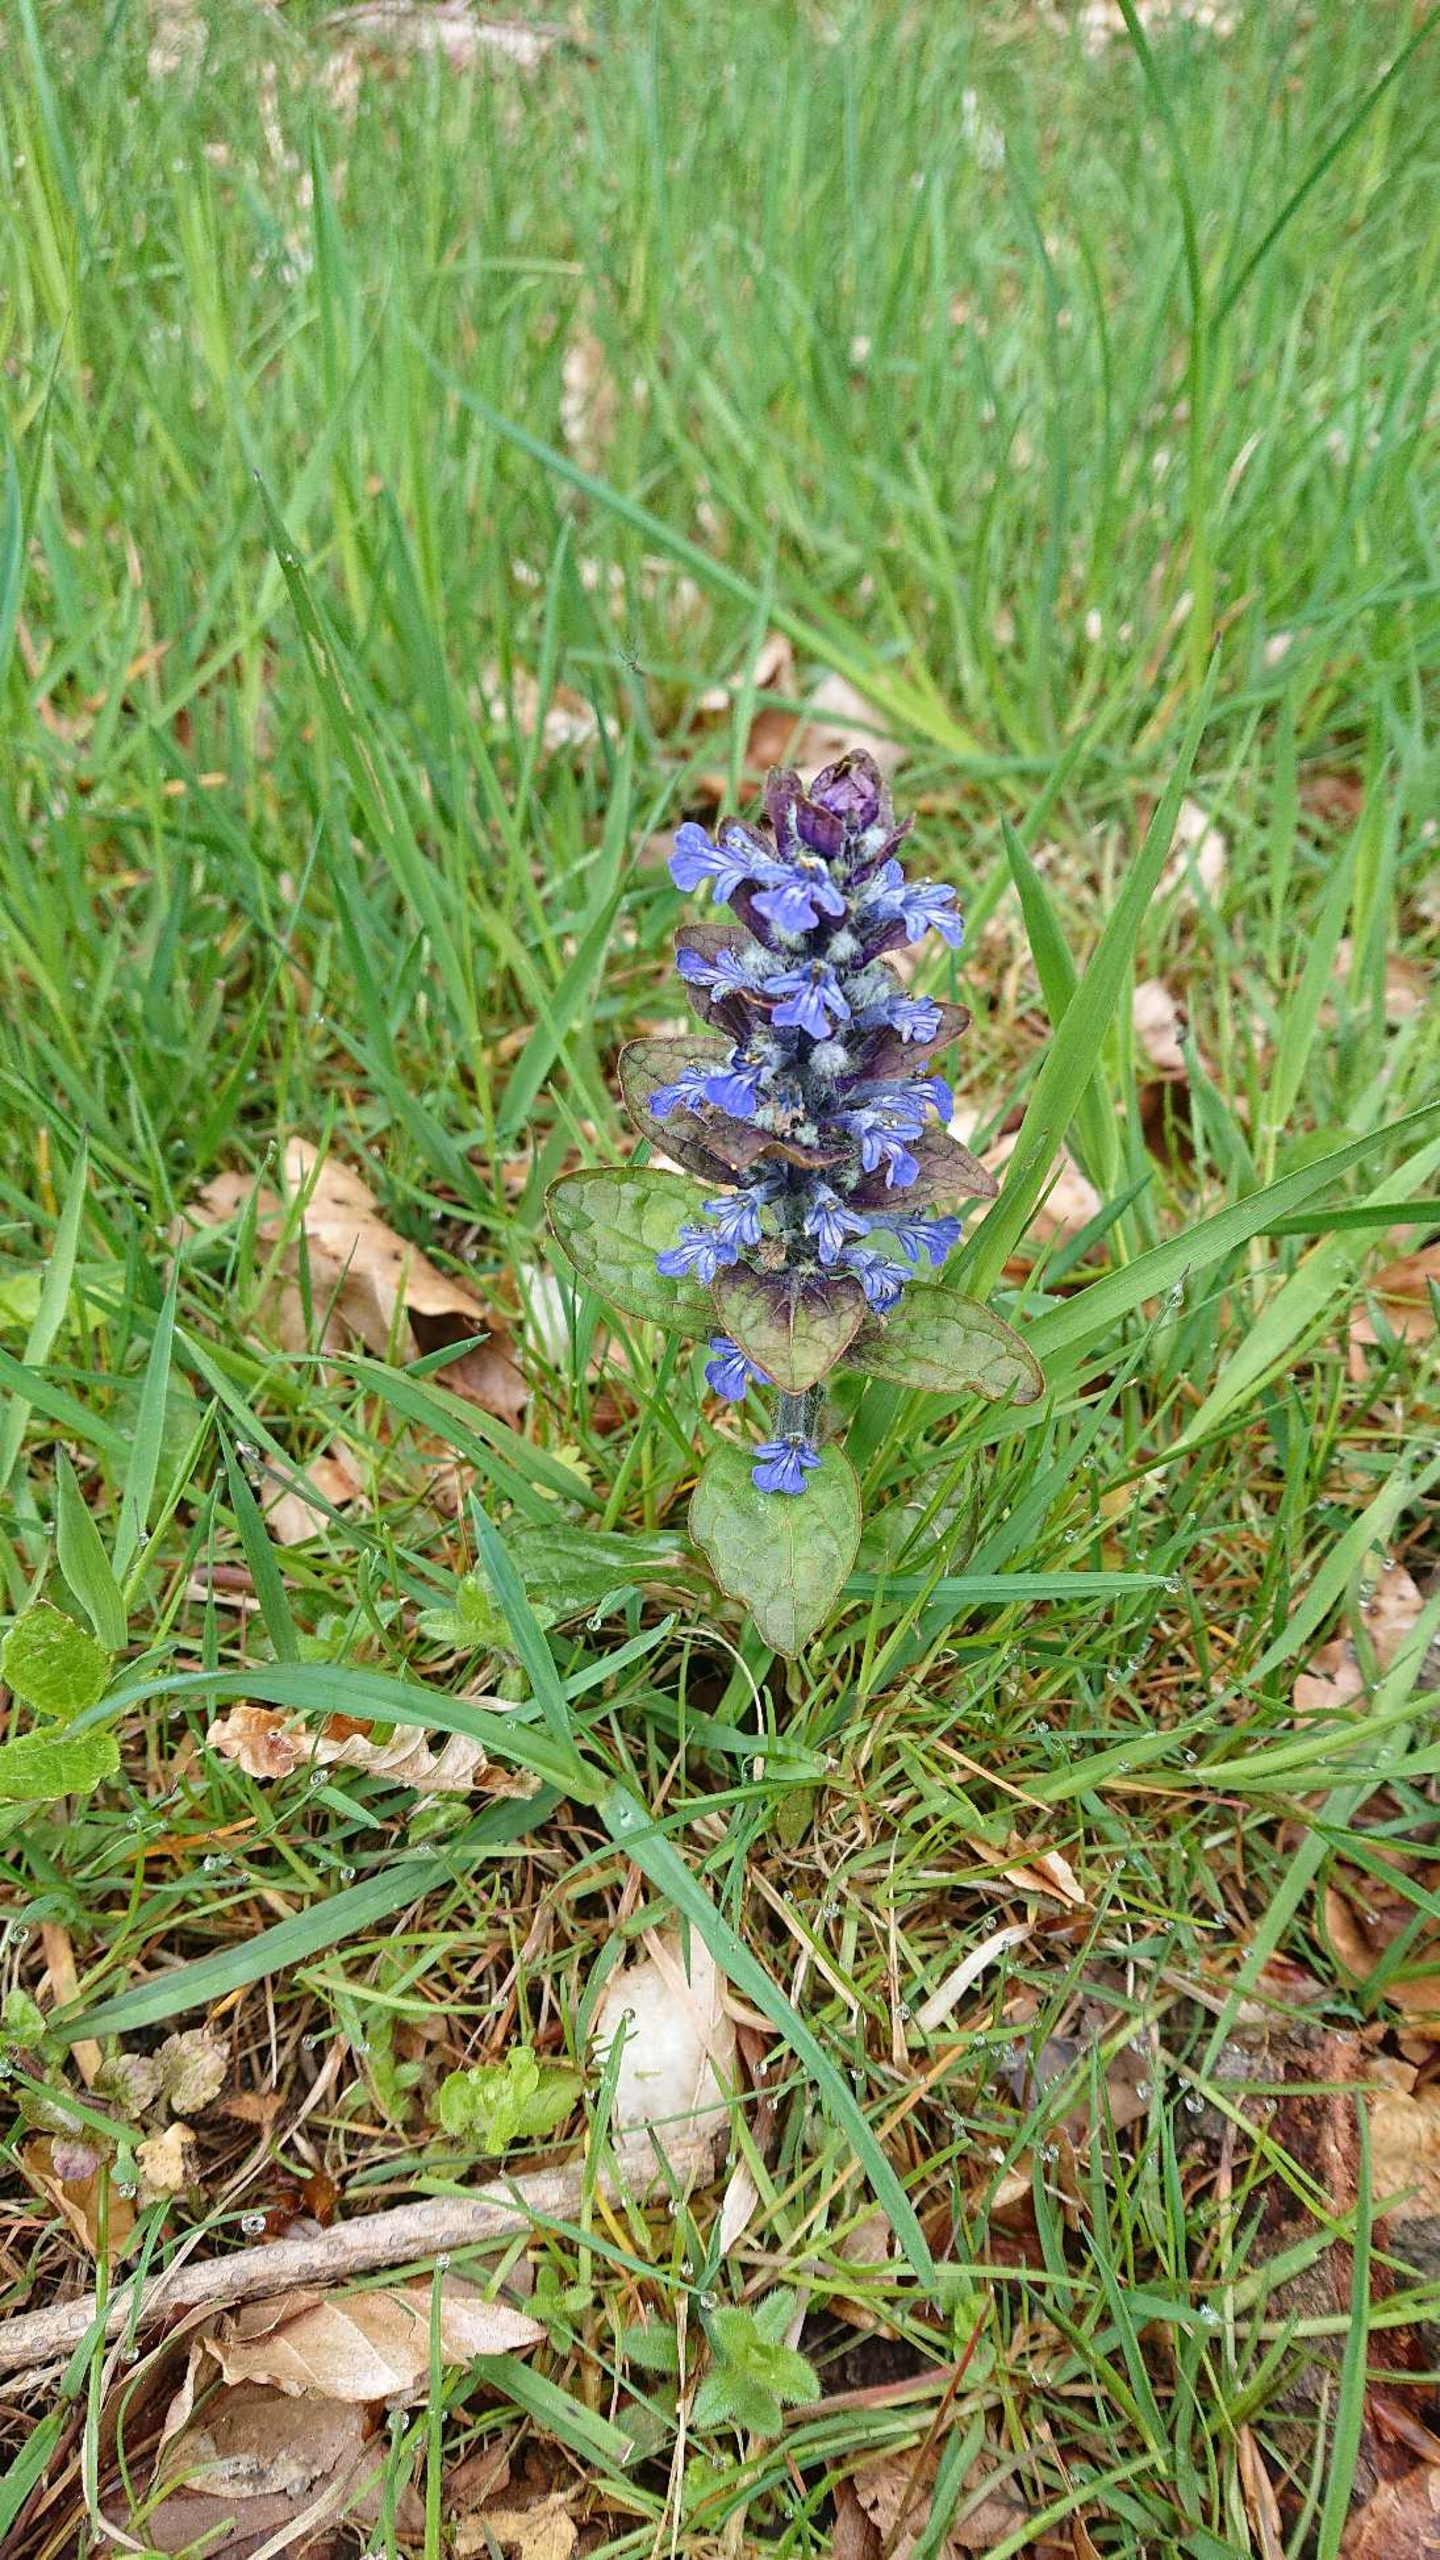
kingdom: Plantae
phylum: Tracheophyta
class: Magnoliopsida
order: Lamiales
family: Lamiaceae
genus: Ajuga
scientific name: Ajuga reptans
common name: Krybende læbeløs
